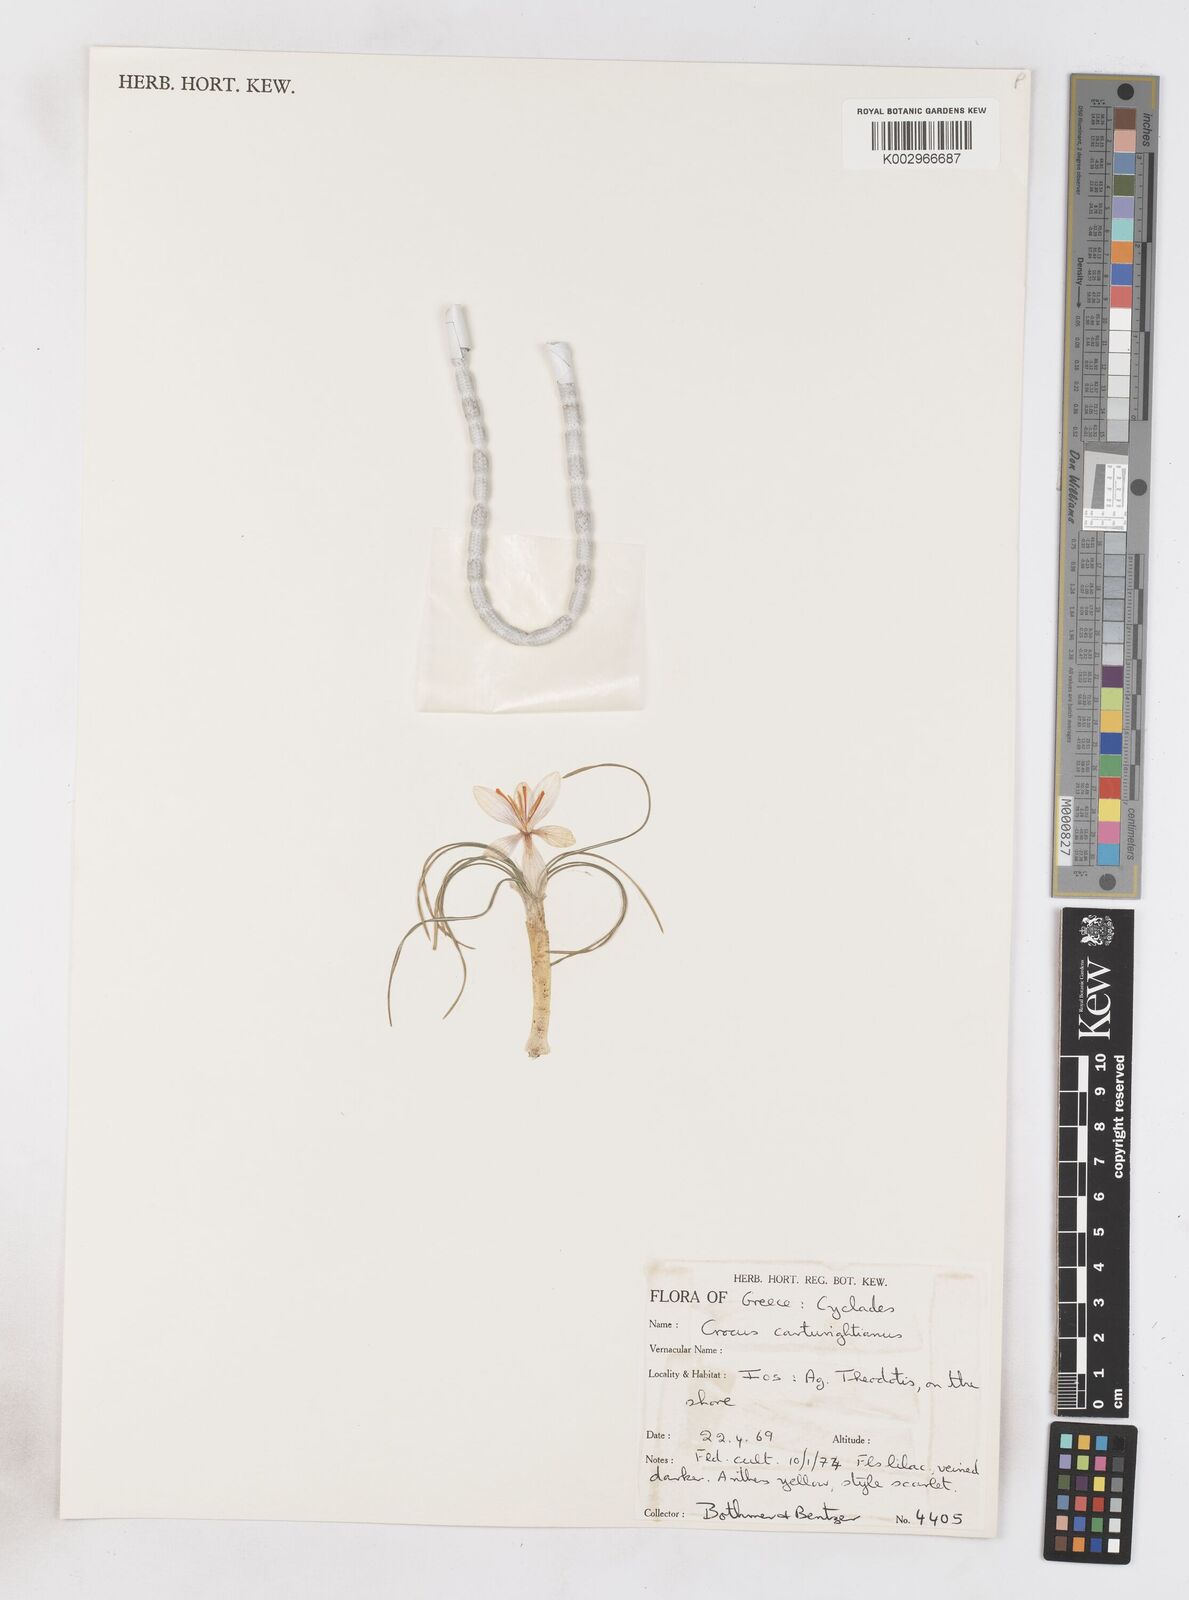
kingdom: Plantae
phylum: Tracheophyta
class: Liliopsida
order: Asparagales
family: Iridaceae
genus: Crocus
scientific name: Crocus cartwrightianus
